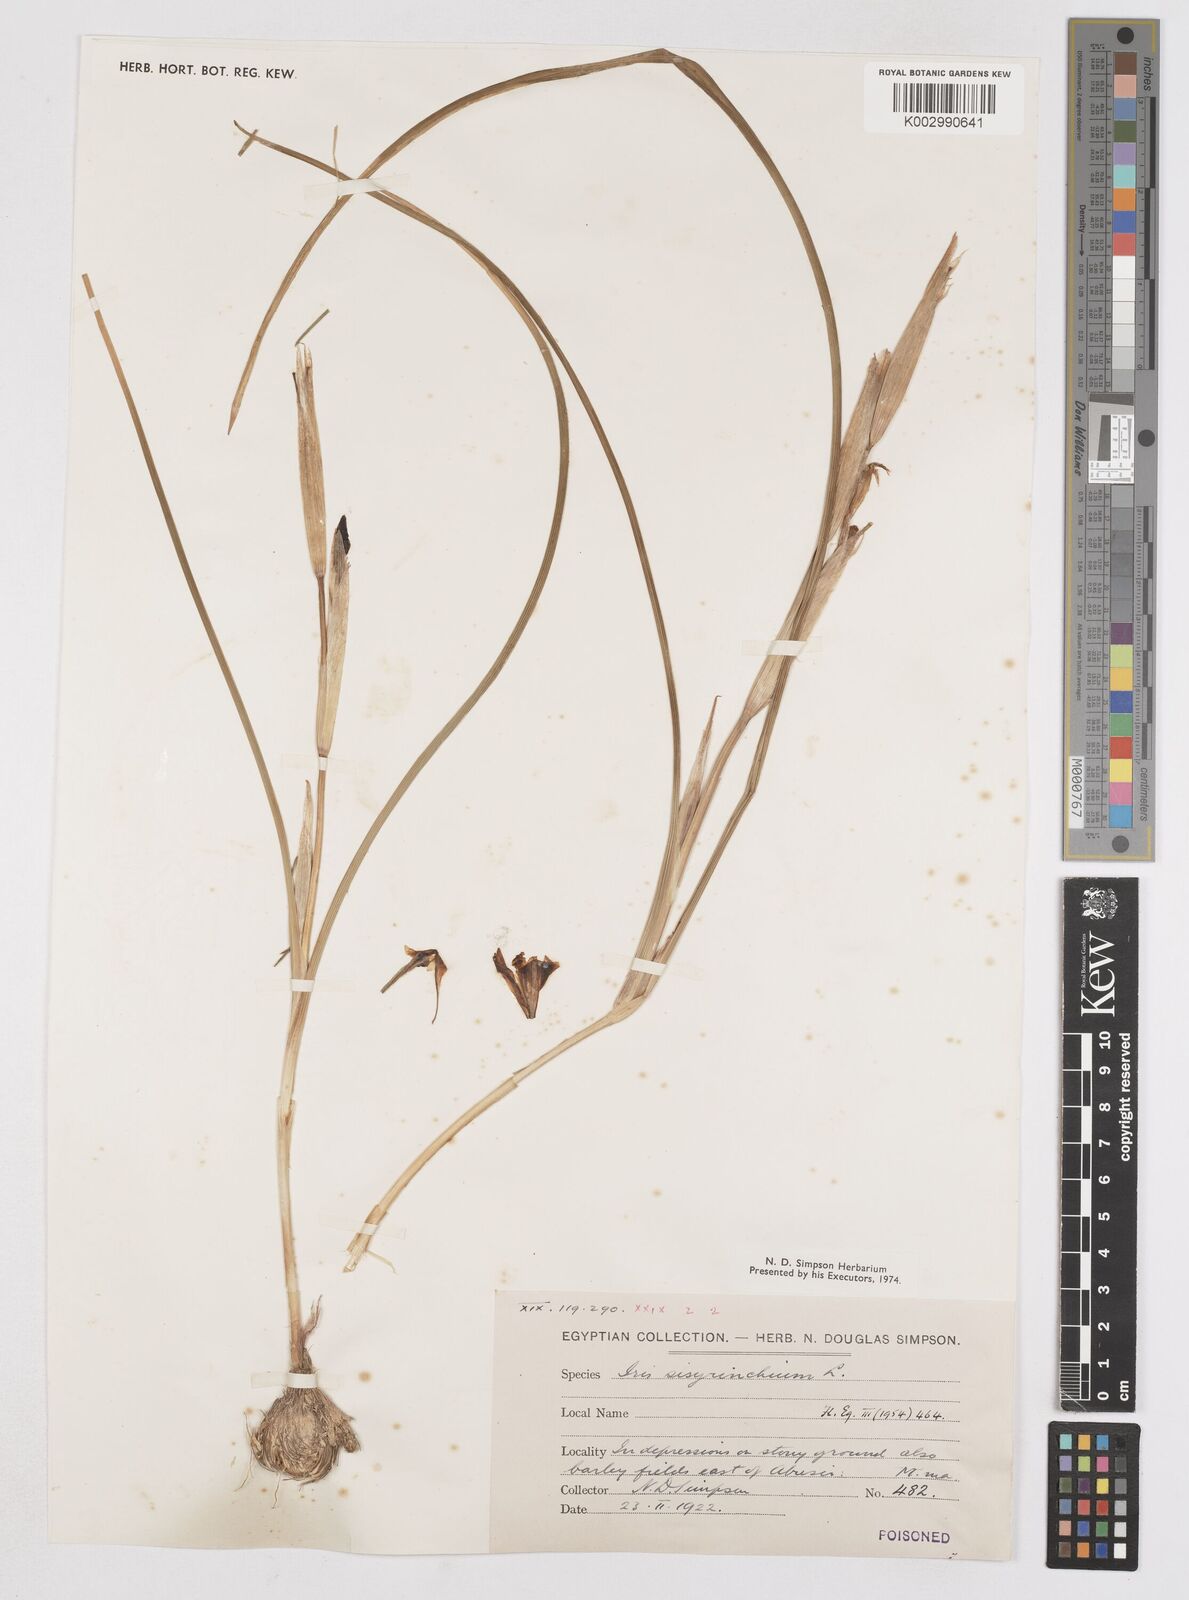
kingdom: Plantae
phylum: Tracheophyta
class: Liliopsida
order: Asparagales
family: Iridaceae
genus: Moraea
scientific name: Moraea sisyrinchium
